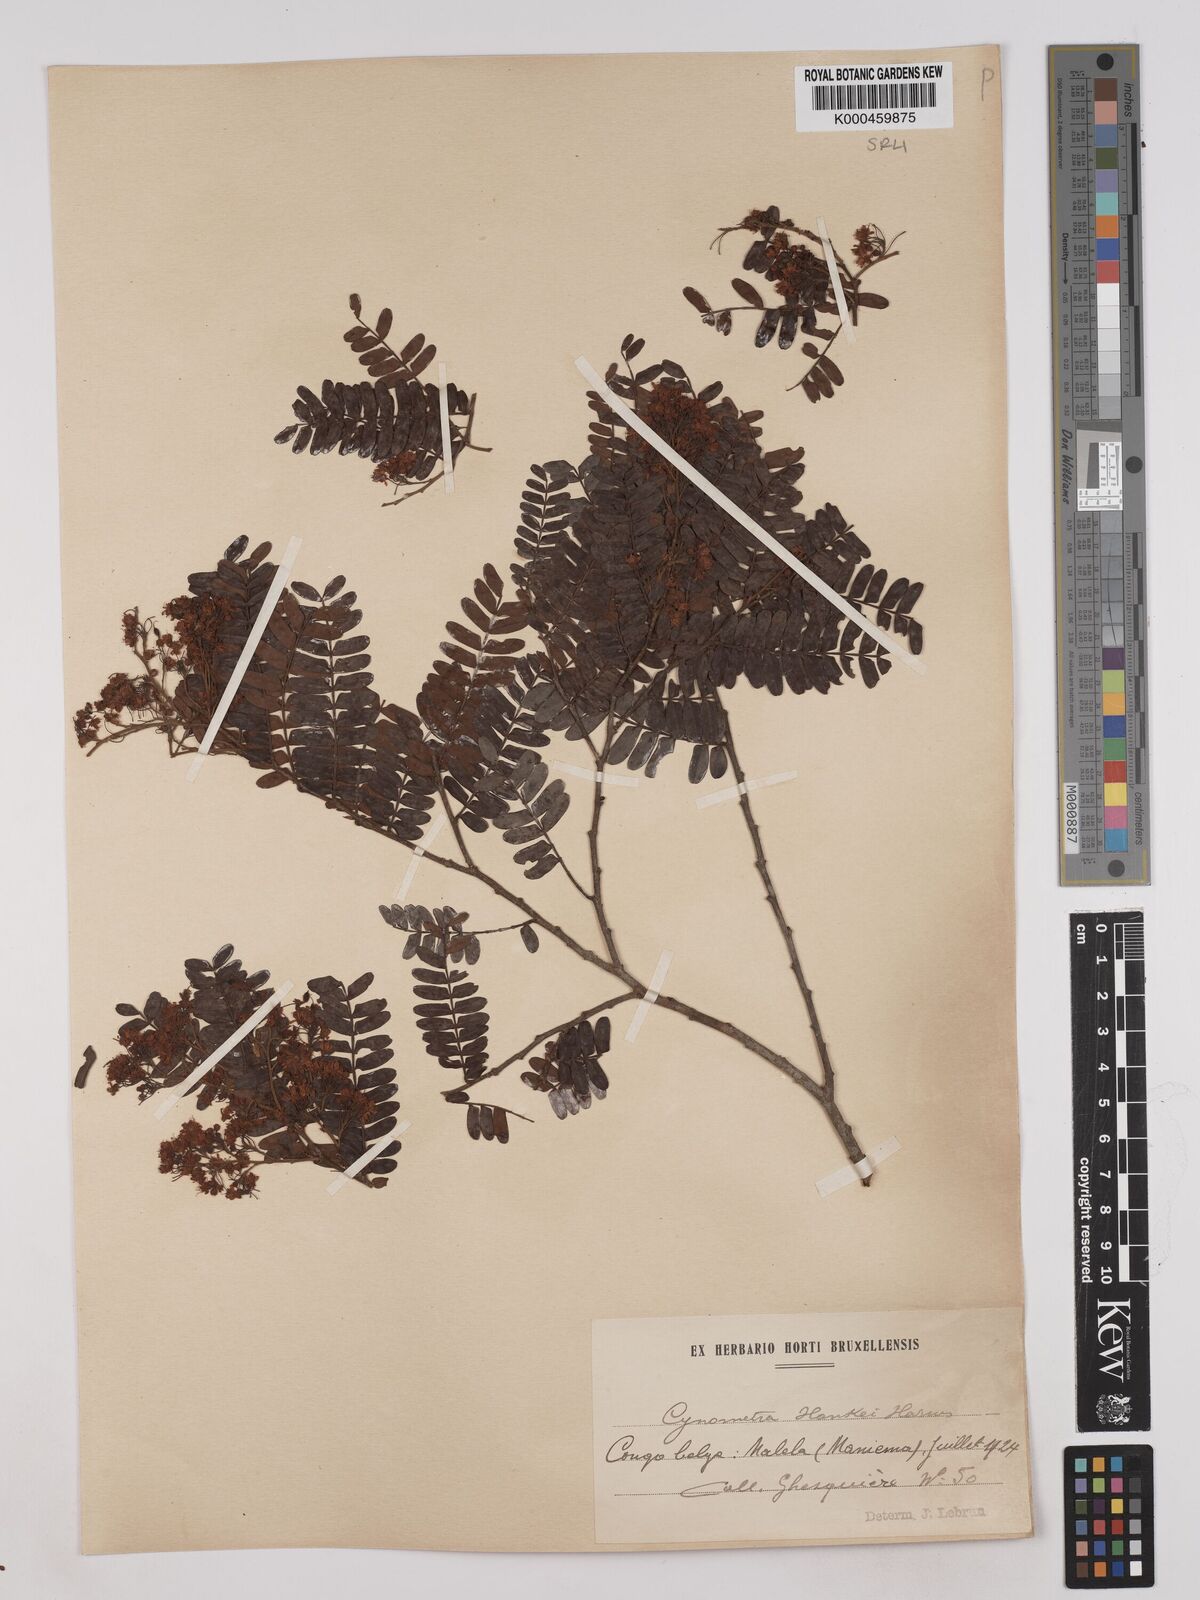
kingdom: Plantae
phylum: Tracheophyta
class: Magnoliopsida
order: Fabales
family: Fabaceae
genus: Cynometra
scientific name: Cynometra hankei
